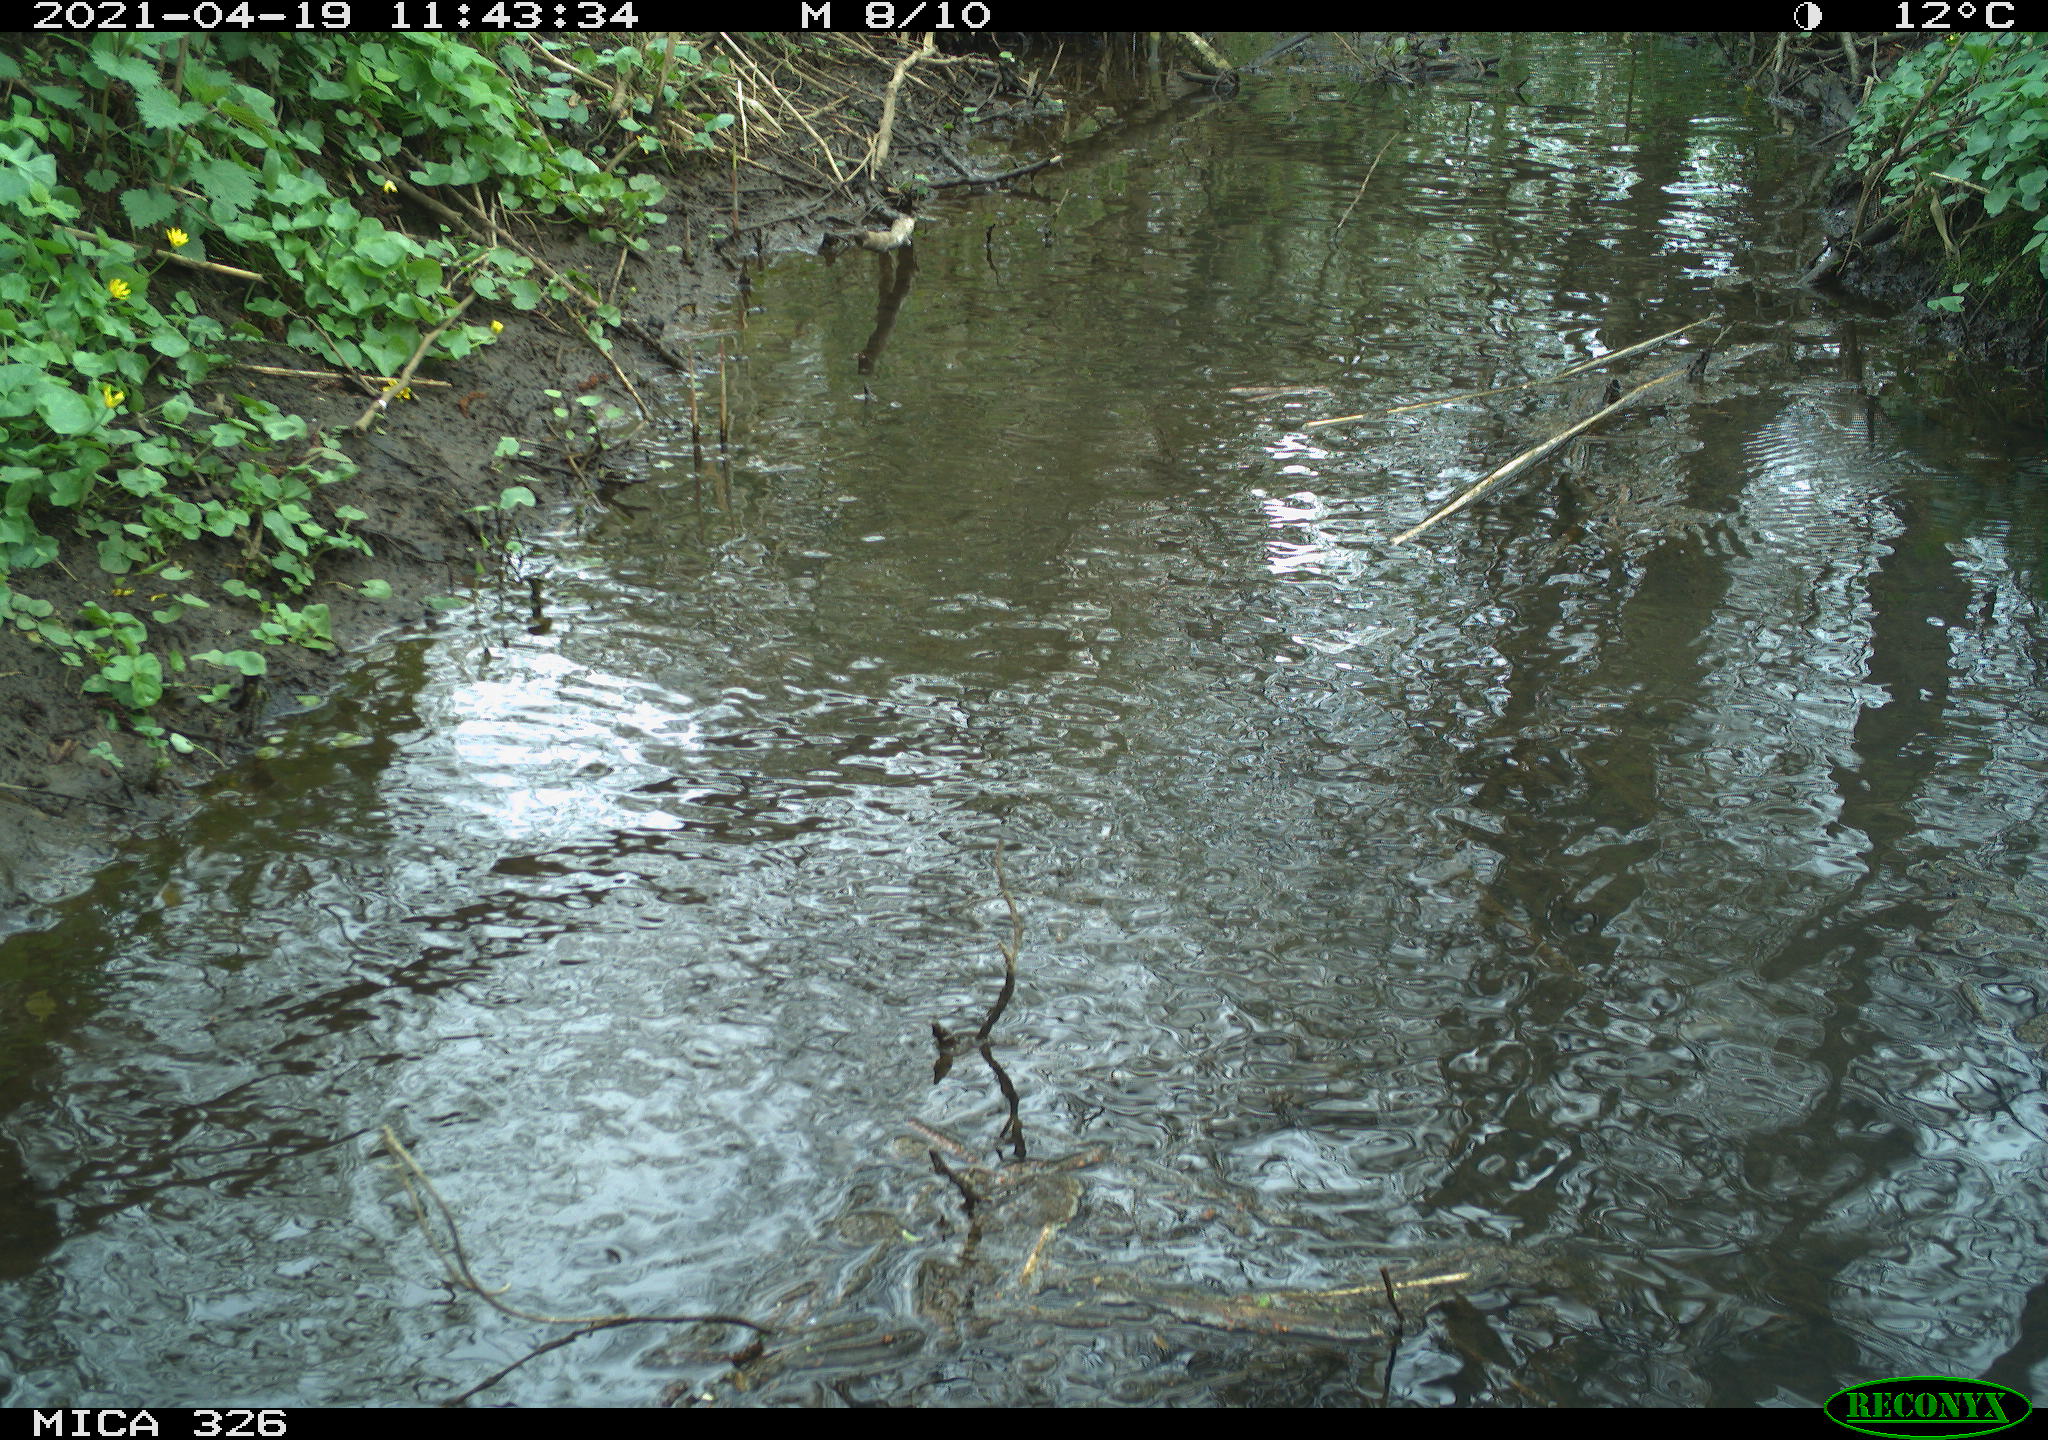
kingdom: Animalia
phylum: Chordata
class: Mammalia
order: Rodentia
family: Cricetidae
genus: Ondatra
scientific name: Ondatra zibethicus
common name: Muskrat
